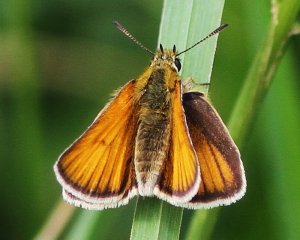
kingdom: Animalia
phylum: Arthropoda
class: Insecta
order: Lepidoptera
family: Hesperiidae
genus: Thymelicus
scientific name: Thymelicus lineola
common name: European Skipper
